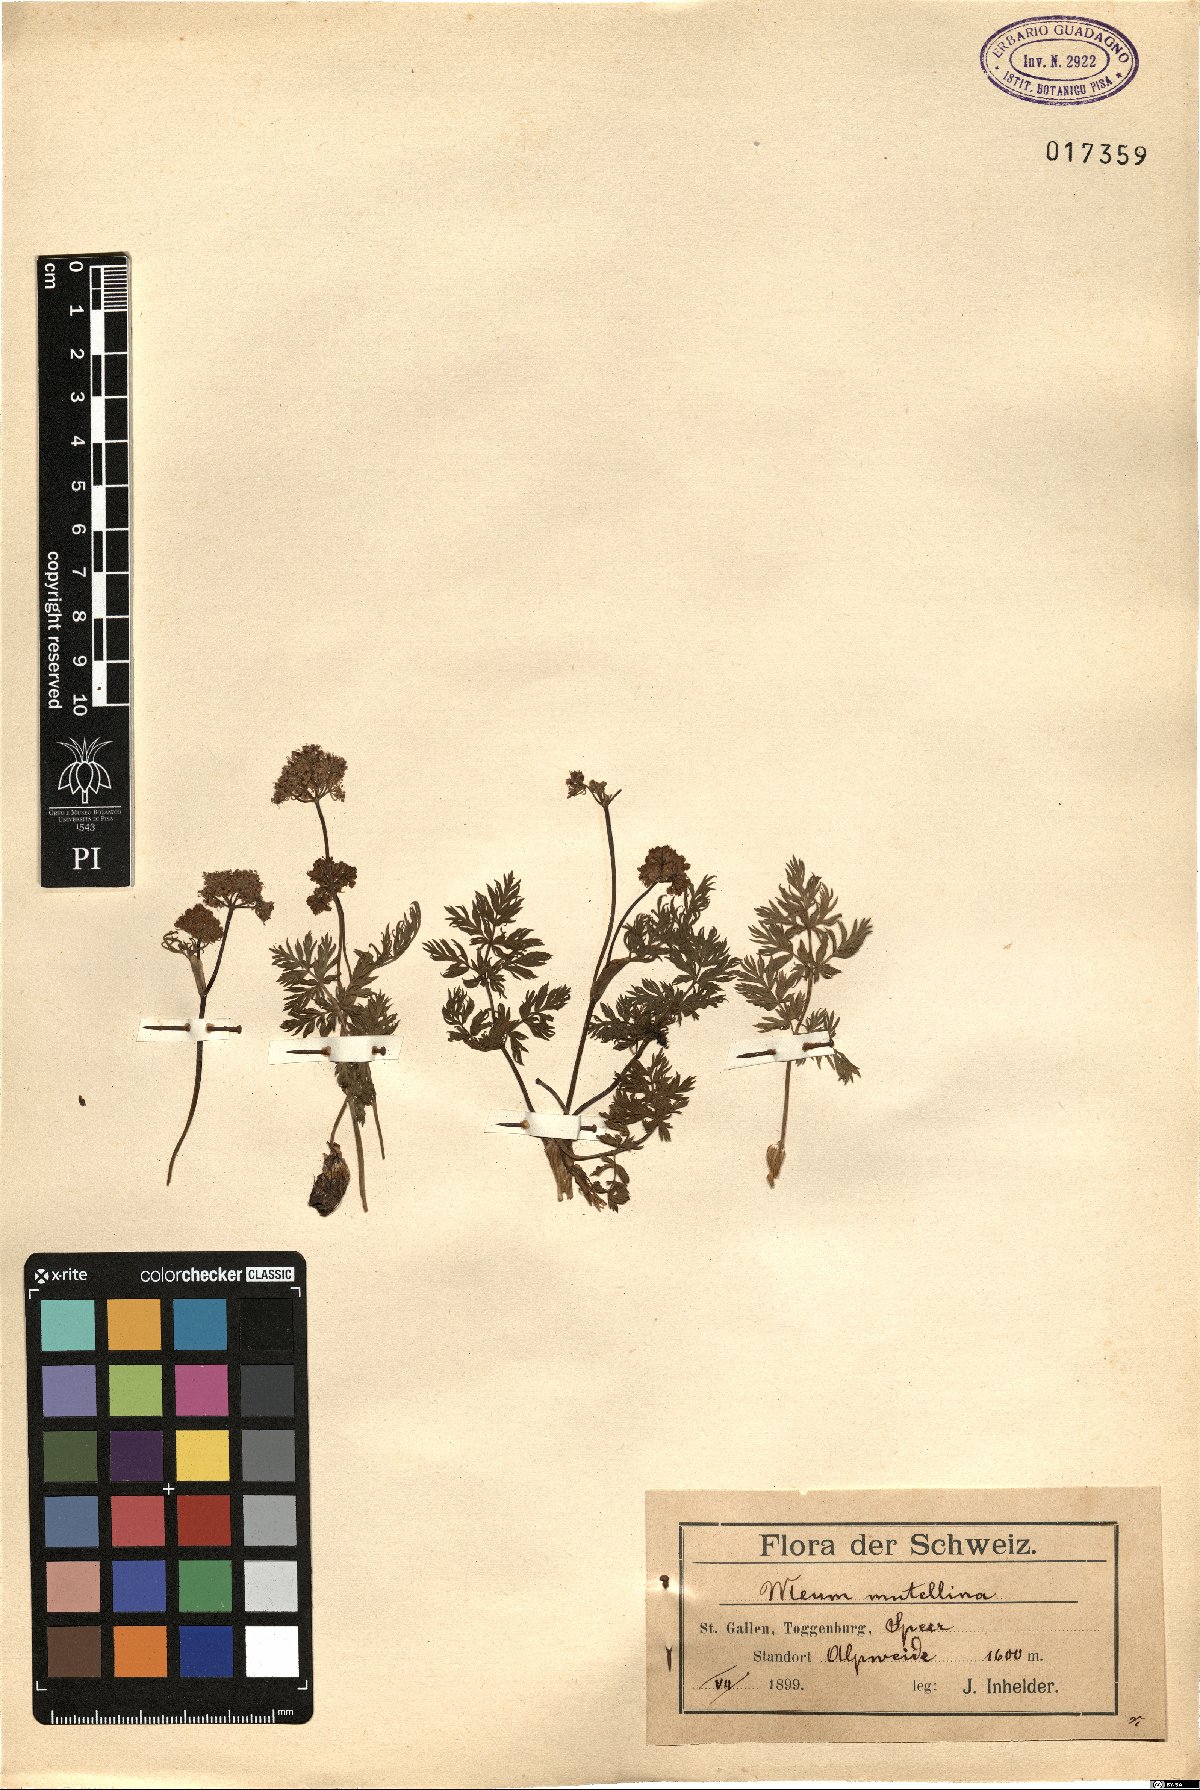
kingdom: Plantae
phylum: Tracheophyta
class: Magnoliopsida
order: Apiales
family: Apiaceae
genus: Mutellina
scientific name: Mutellina adonidifolia
